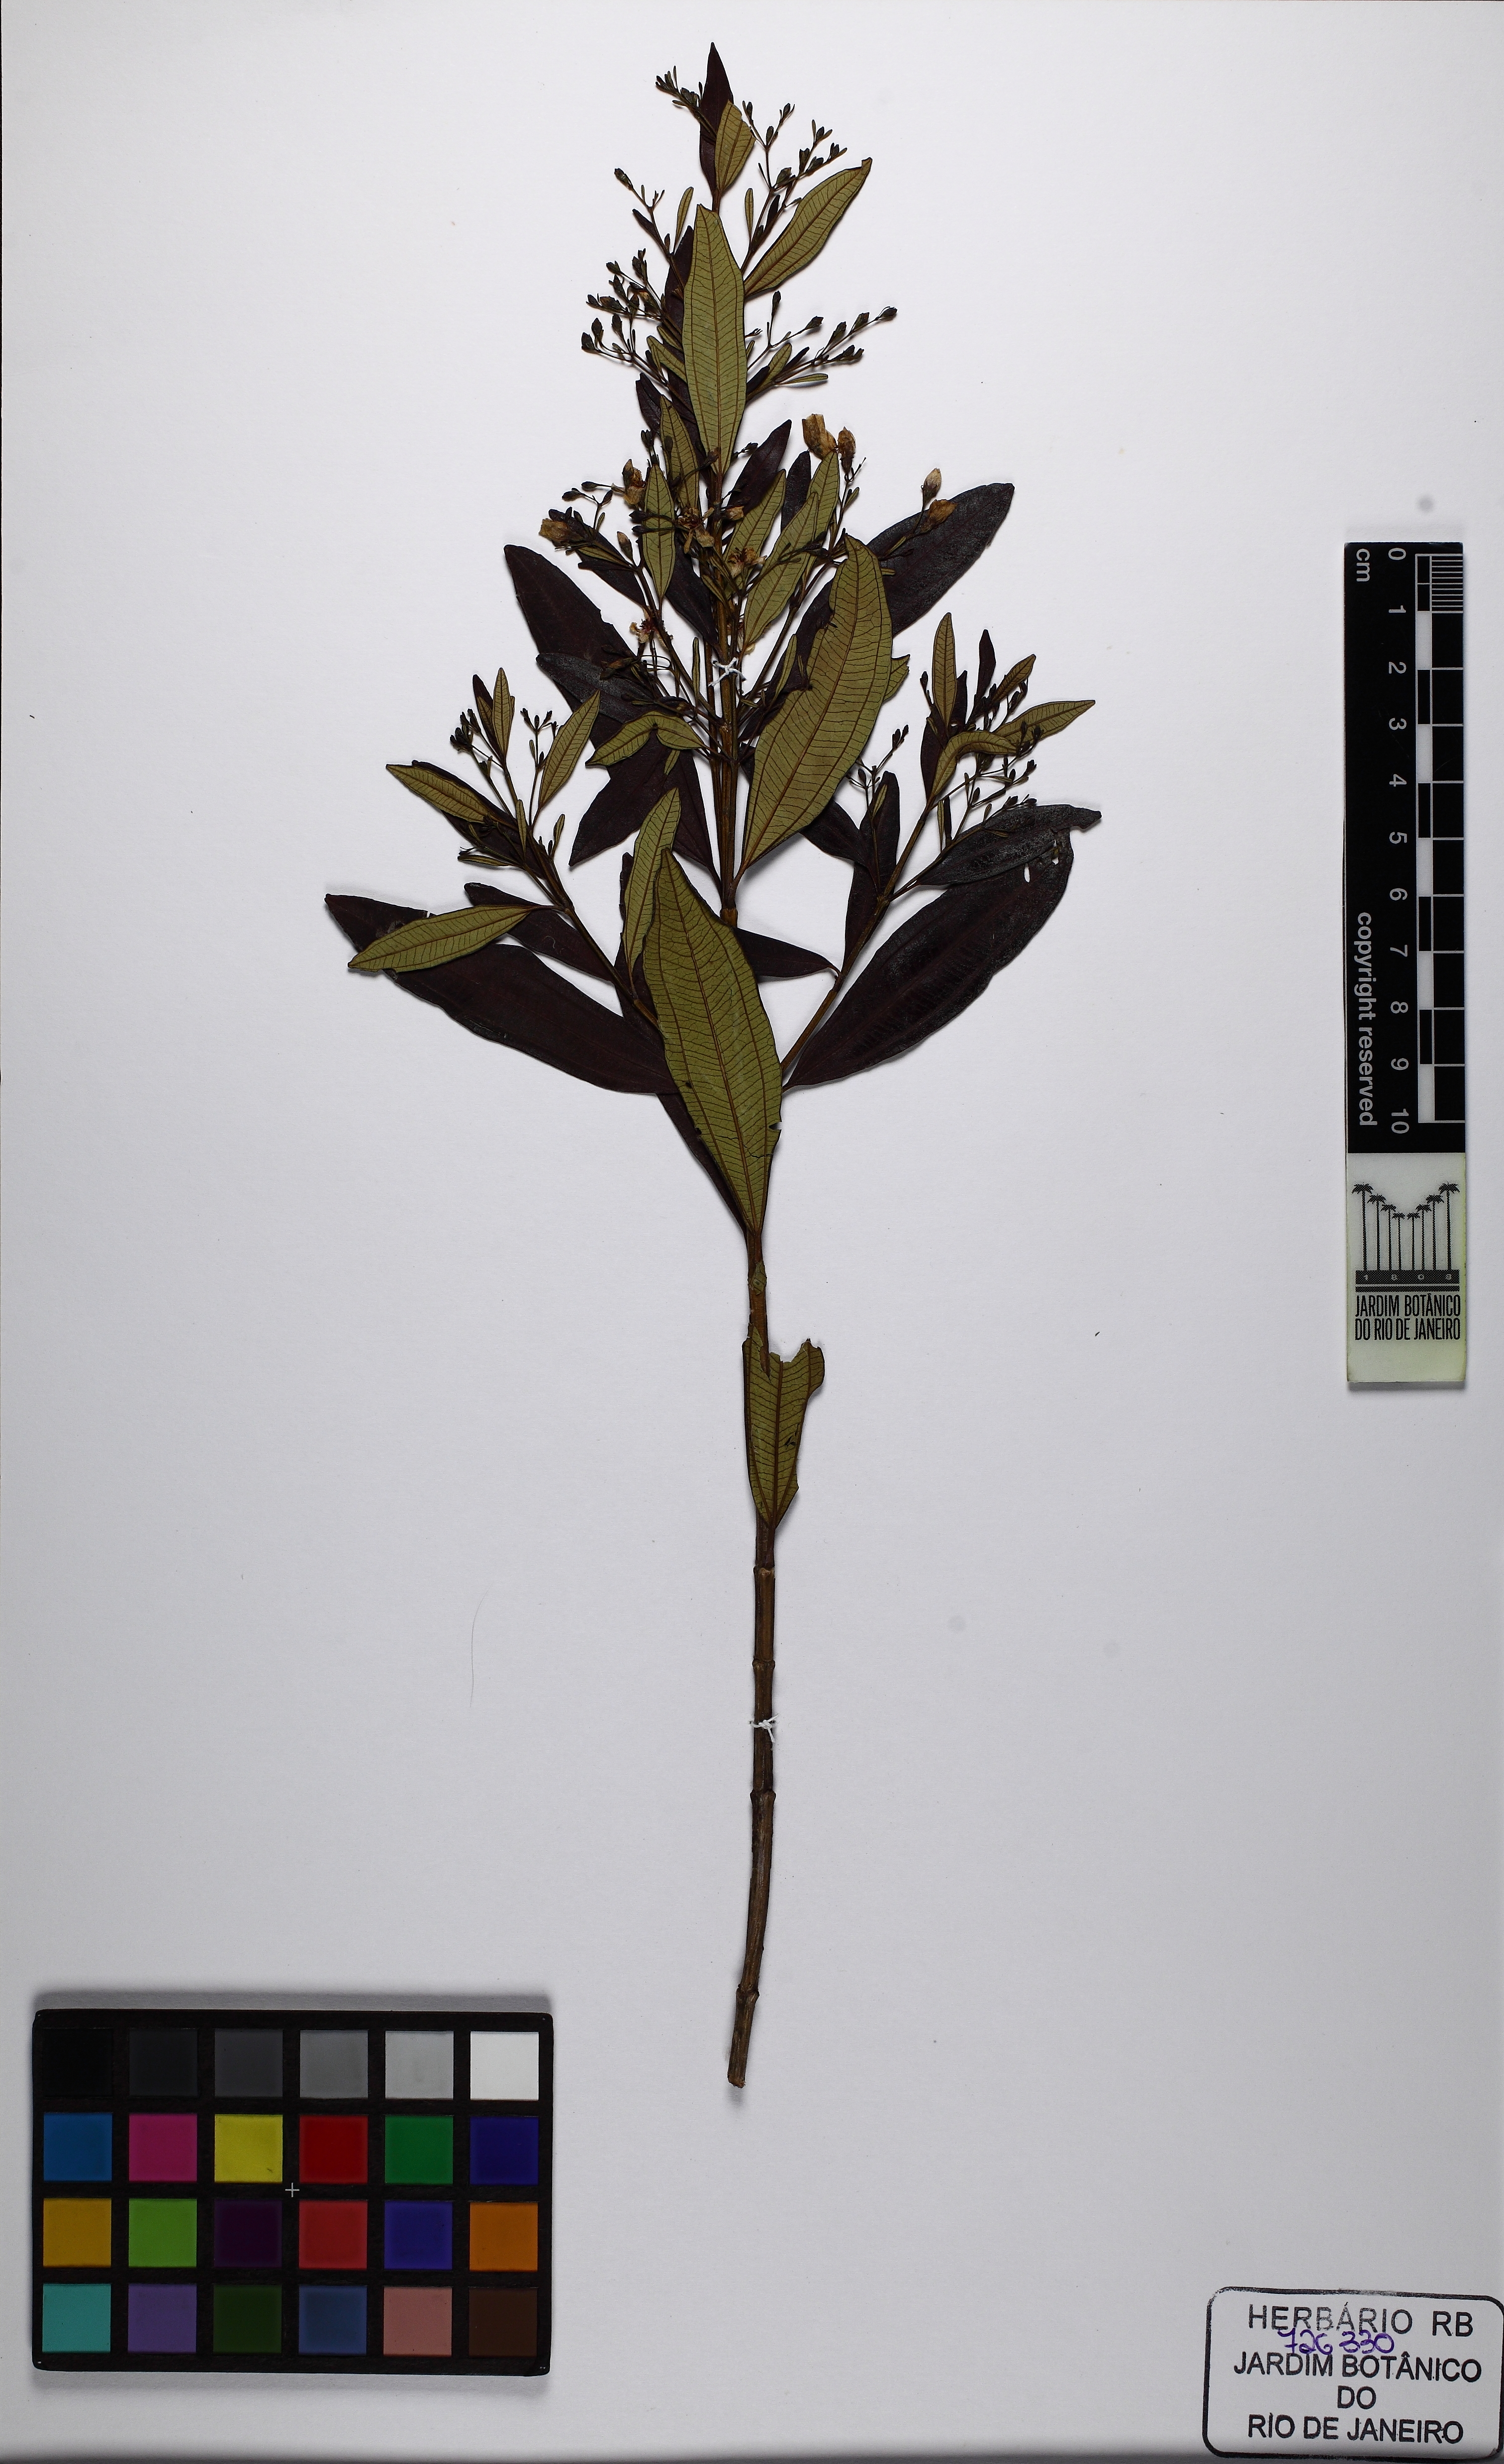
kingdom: Plantae
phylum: Tracheophyta
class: Magnoliopsida
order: Myrtales
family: Melastomataceae
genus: Microlicia
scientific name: Microlicia parviflora
